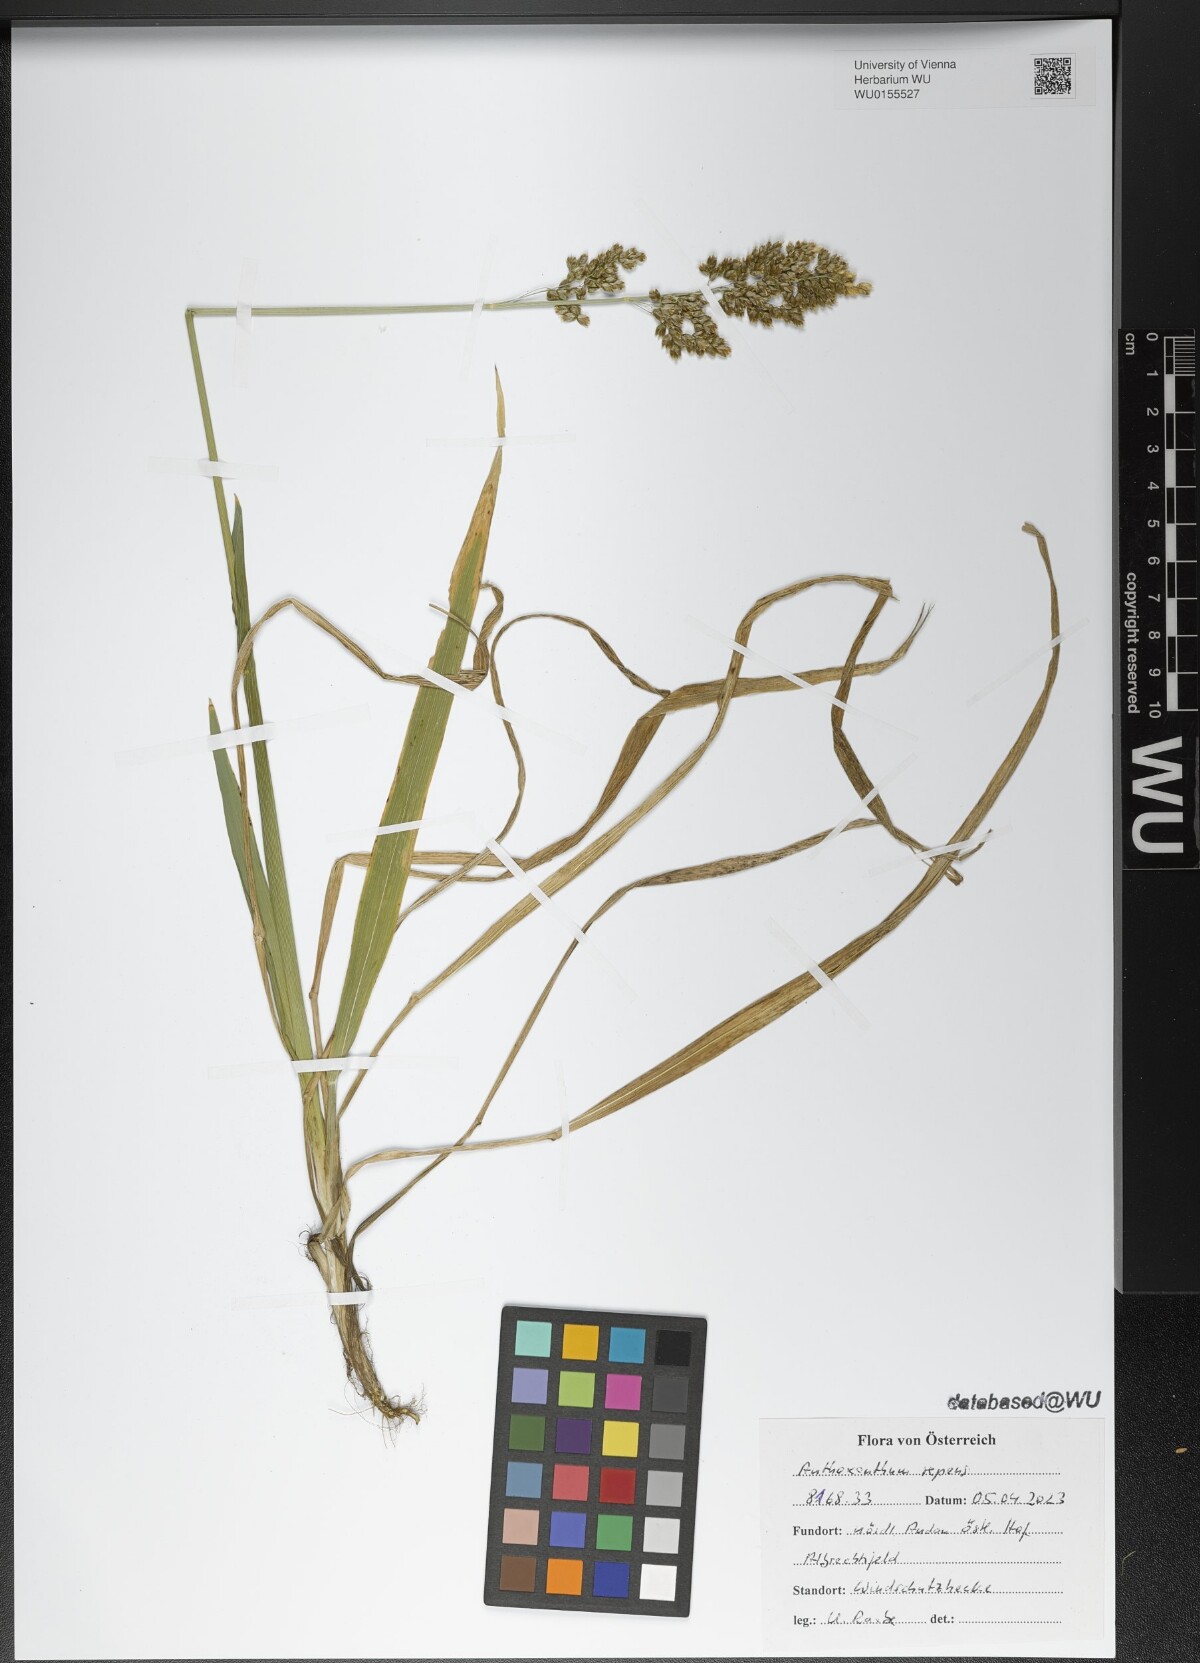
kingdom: Plantae
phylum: Tracheophyta
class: Liliopsida
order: Poales
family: Poaceae
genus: Anthoxanthum
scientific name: Anthoxanthum repens
